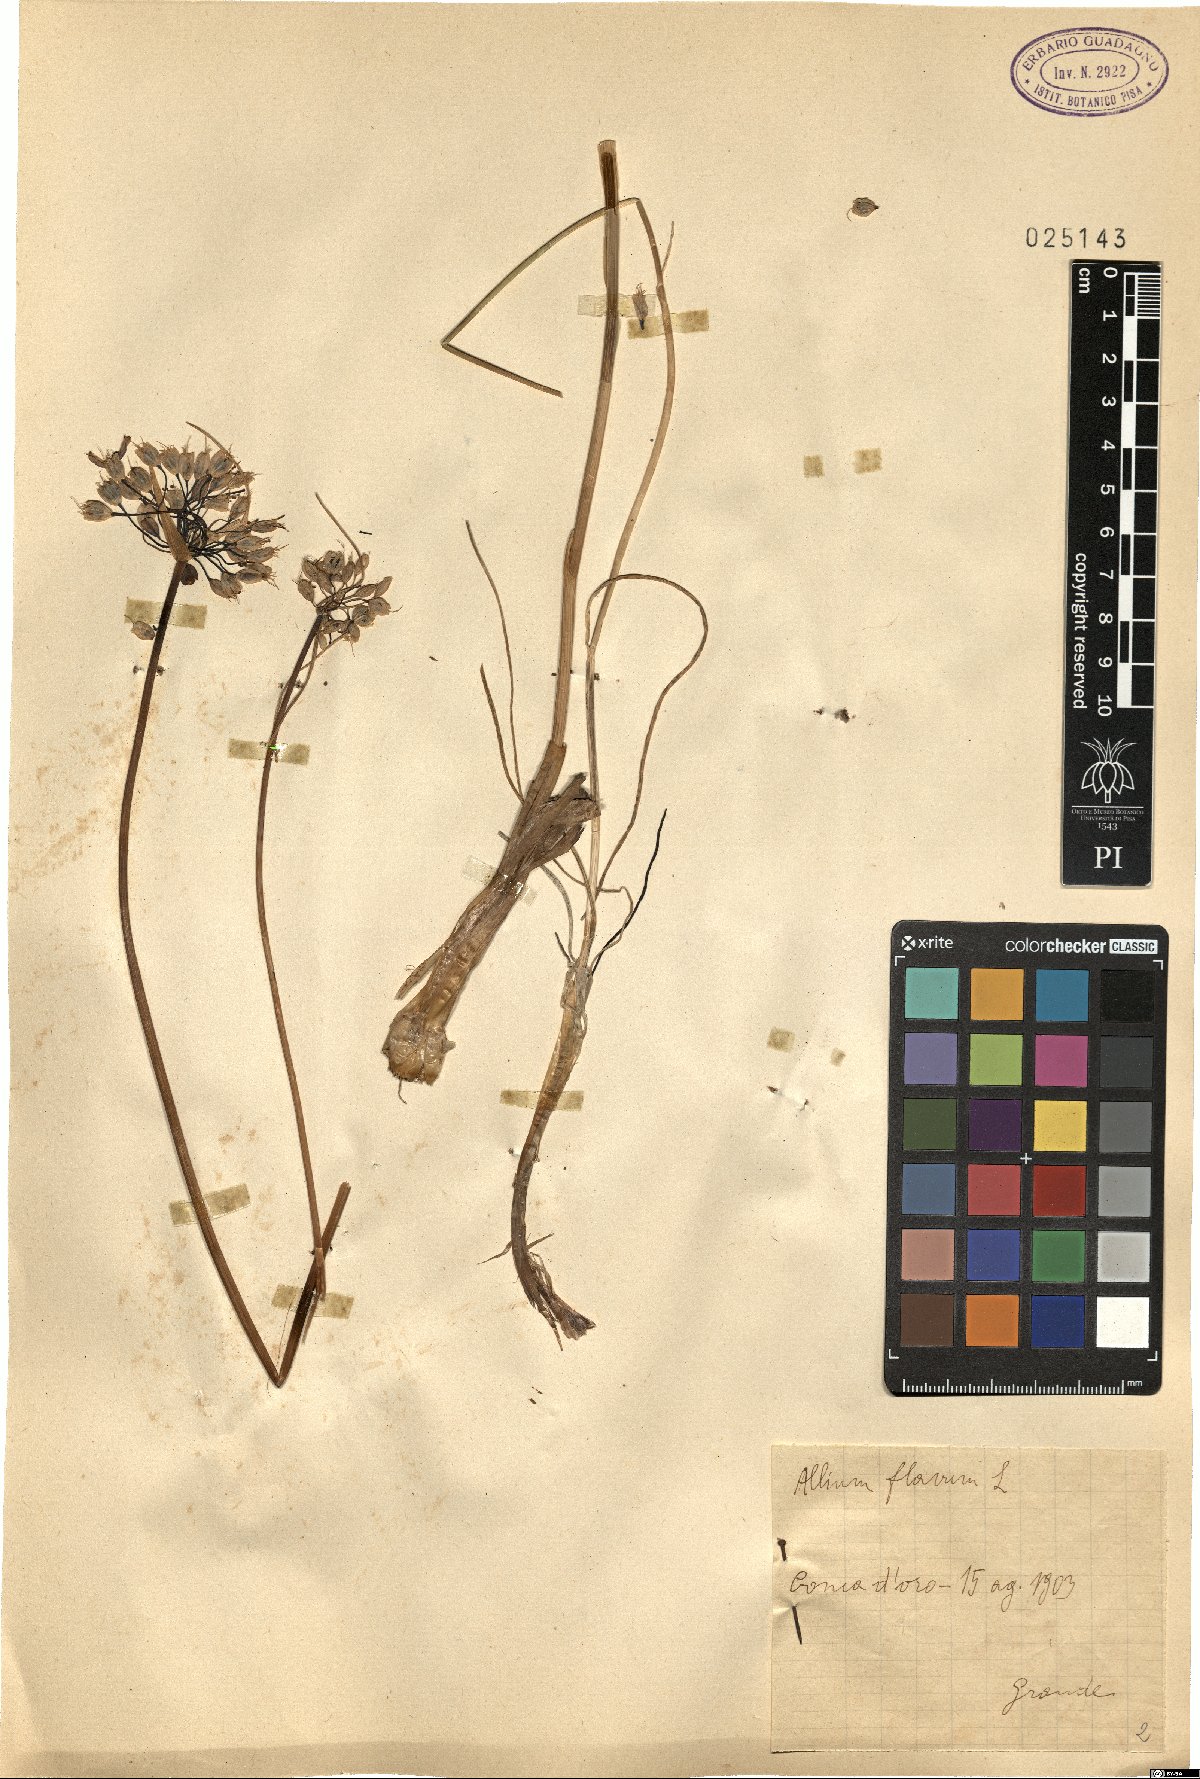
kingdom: Plantae
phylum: Tracheophyta
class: Liliopsida
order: Asparagales
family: Amaryllidaceae
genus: Allium
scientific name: Allium flavum
